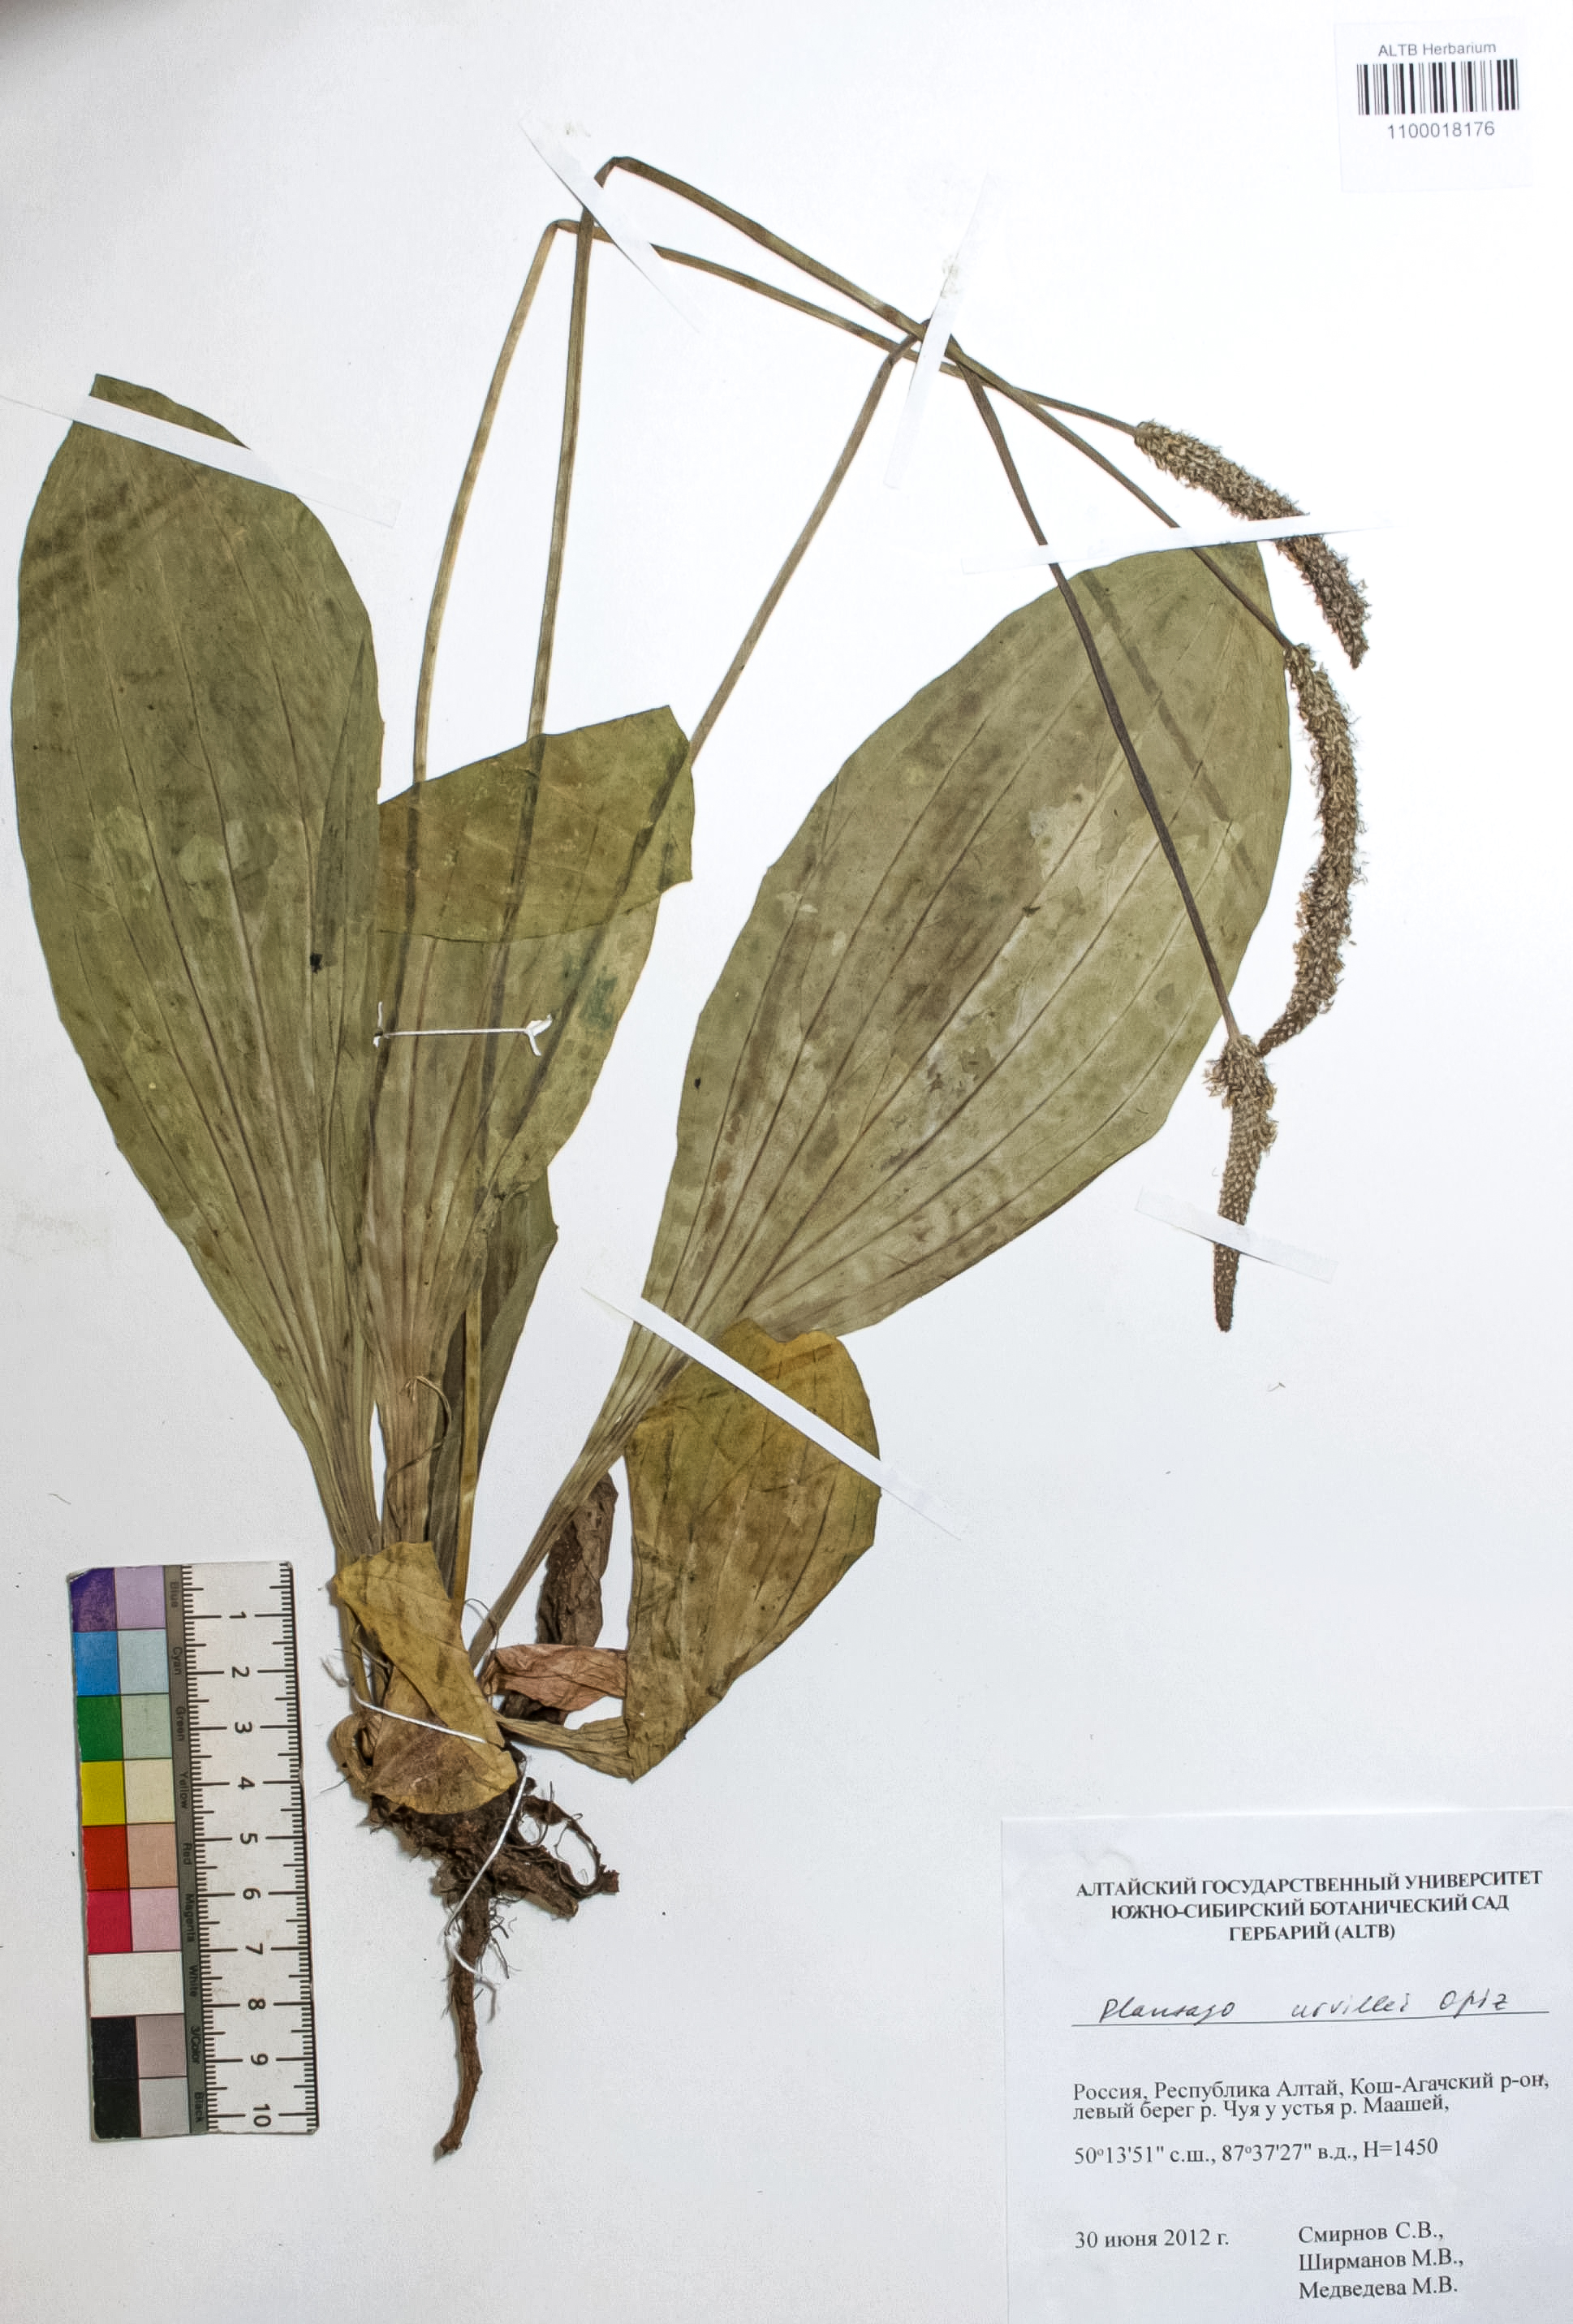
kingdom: Plantae
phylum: Tracheophyta
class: Magnoliopsida
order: Lamiales
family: Plantaginaceae
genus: Plantago
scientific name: Plantago urvillei
